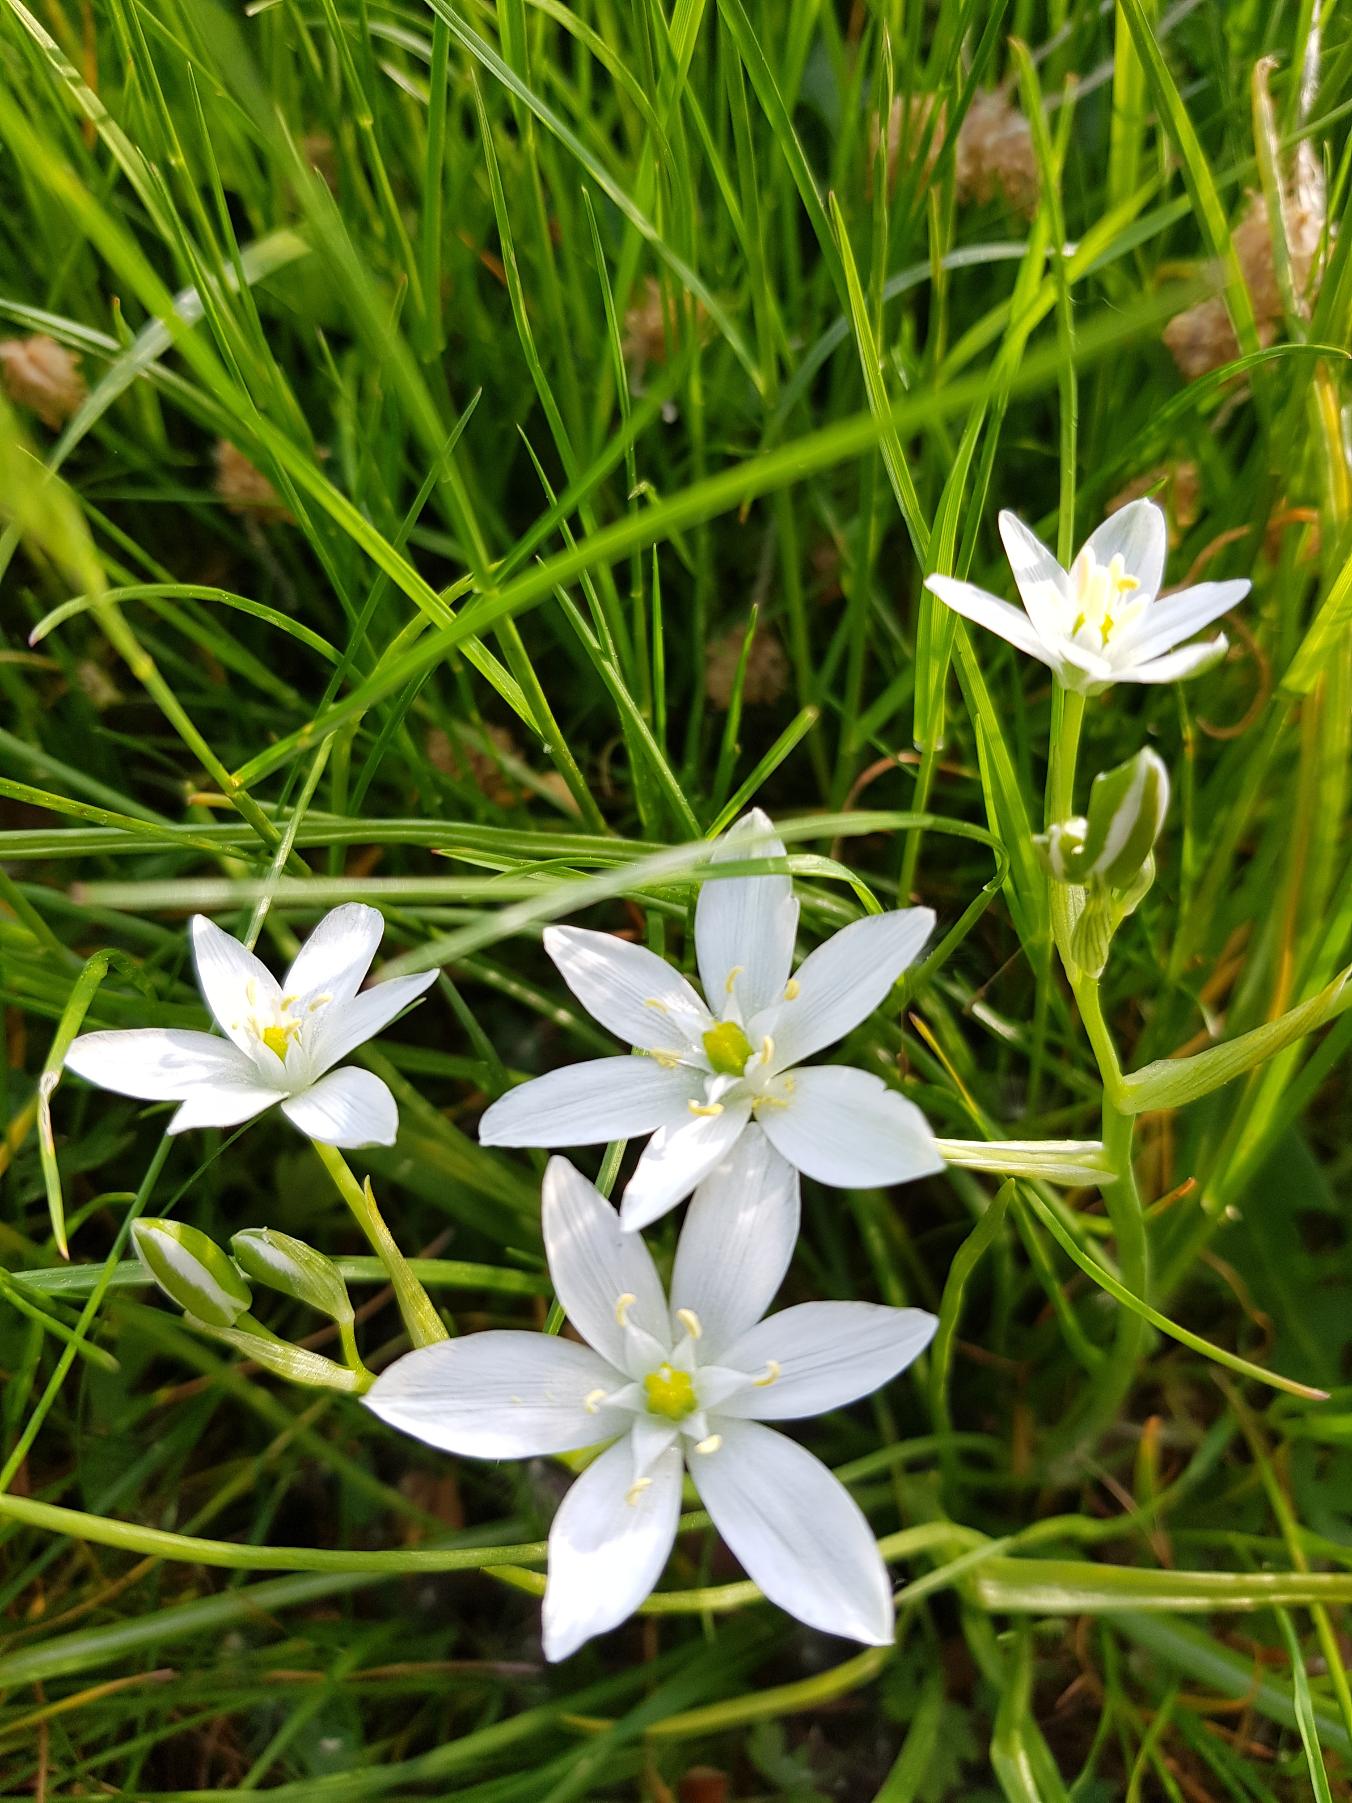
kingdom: Plantae
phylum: Tracheophyta
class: Liliopsida
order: Asparagales
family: Asparagaceae
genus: Ornithogalum
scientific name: Ornithogalum umbellatum
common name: Kost-fuglemælk
